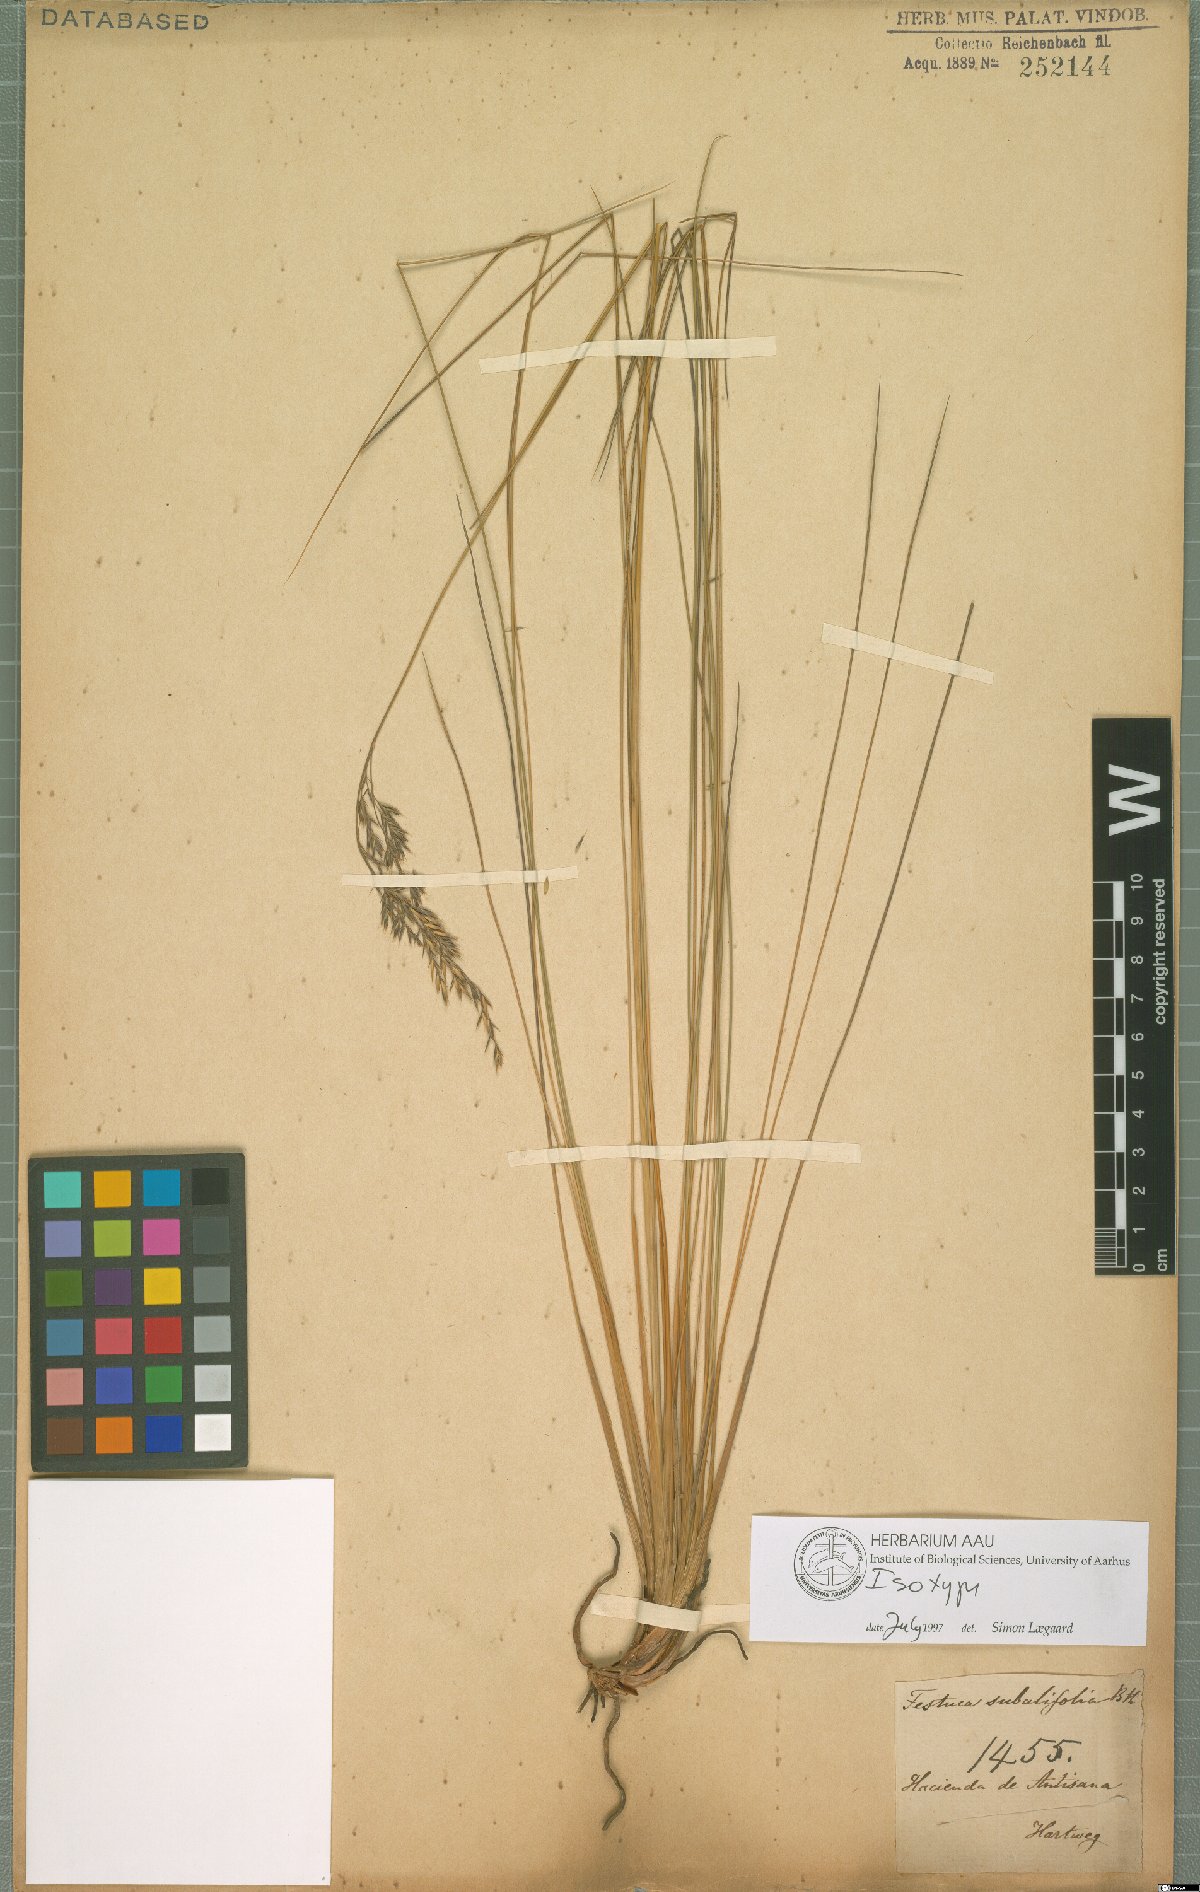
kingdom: Plantae
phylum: Tracheophyta
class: Liliopsida
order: Poales
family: Poaceae
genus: Festuca
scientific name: Festuca subulifolia
